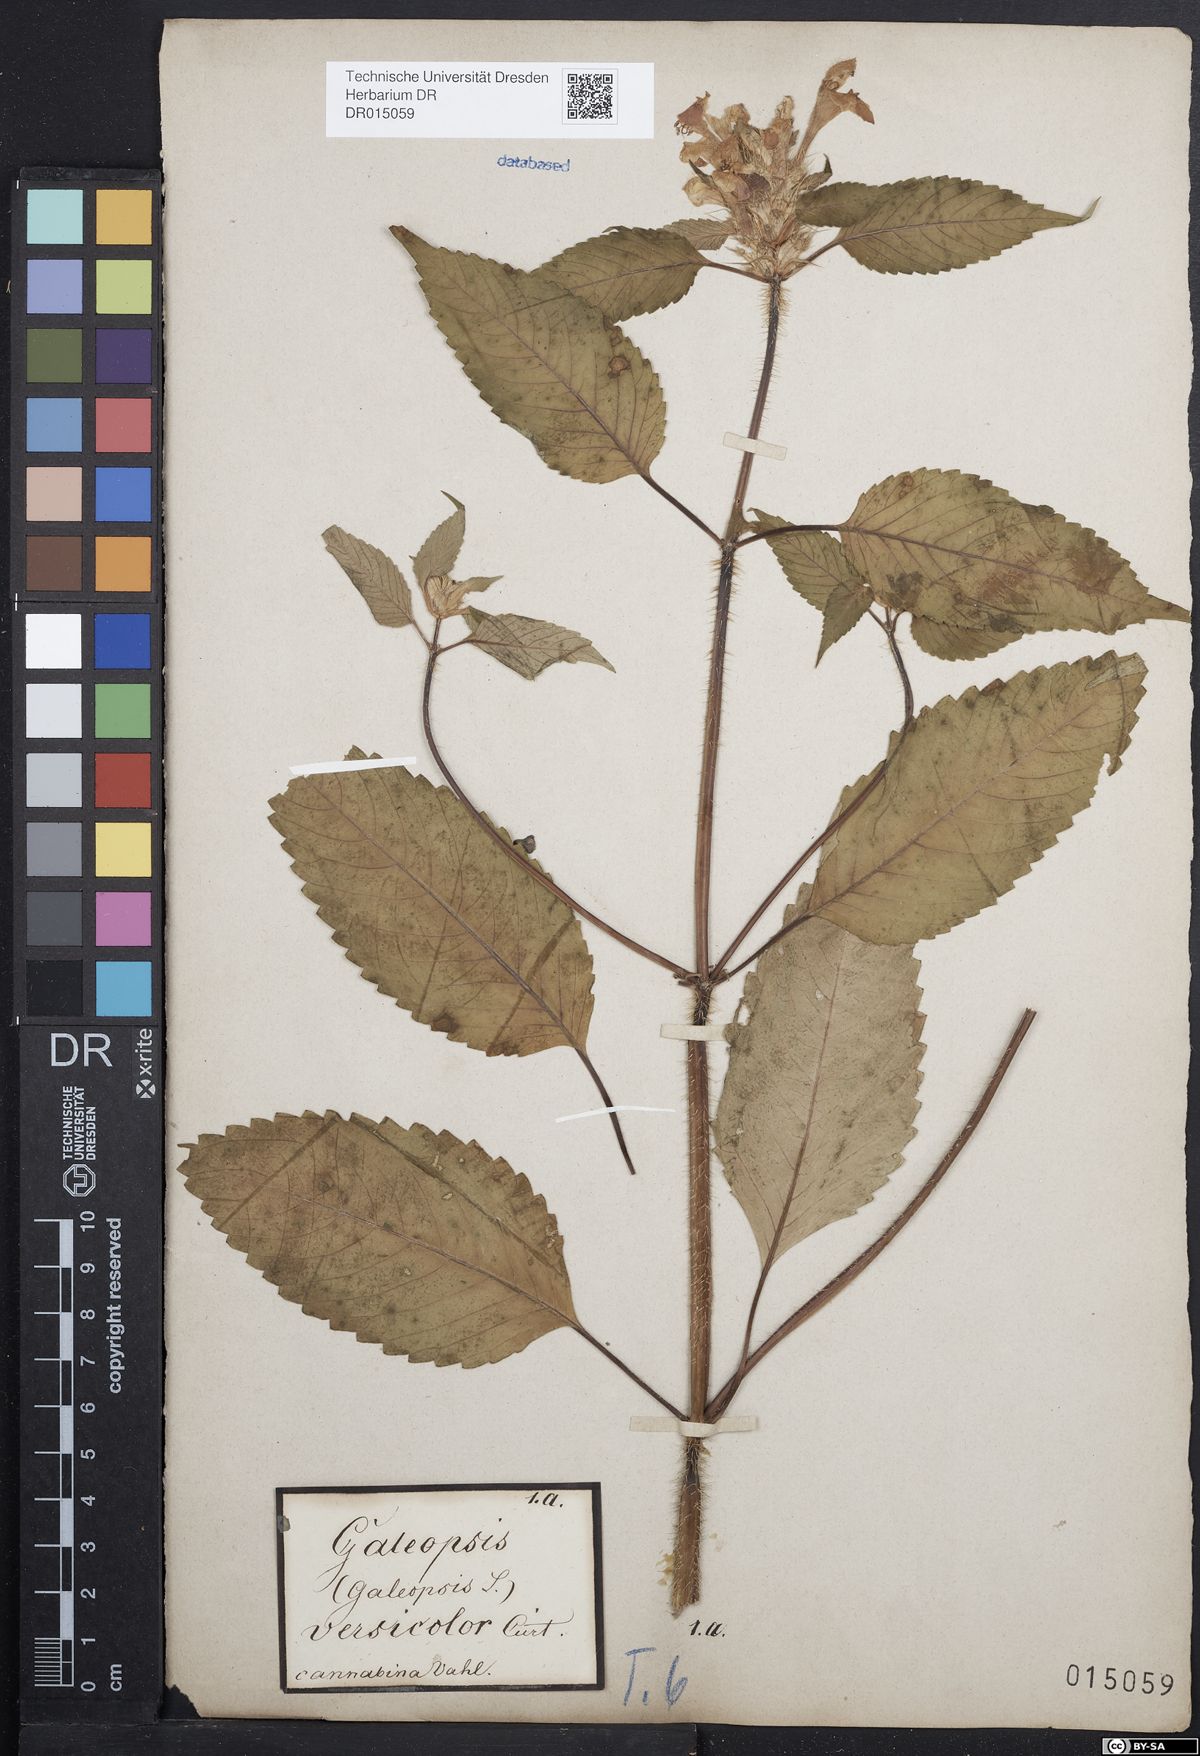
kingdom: Plantae
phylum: Tracheophyta
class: Magnoliopsida
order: Lamiales
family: Lamiaceae
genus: Galeopsis
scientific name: Galeopsis speciosa
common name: Large-flowered hemp-nettle
